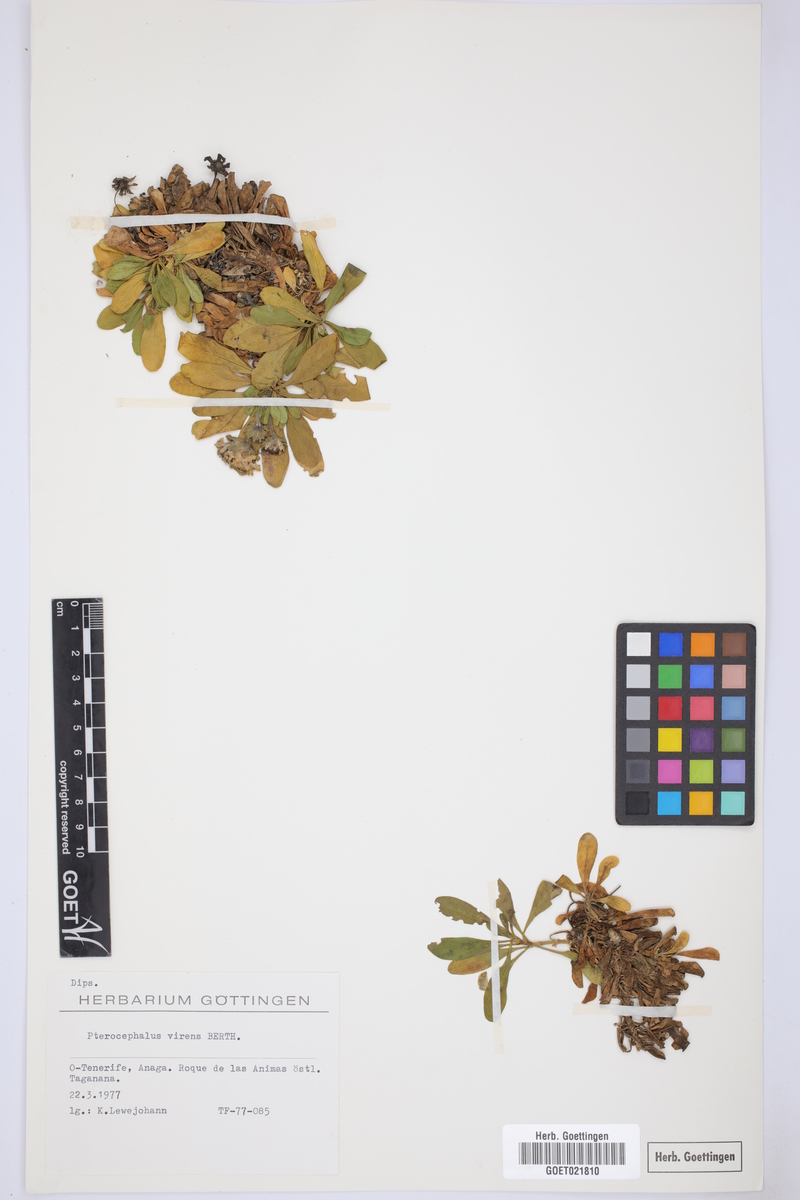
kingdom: Plantae
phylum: Tracheophyta
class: Magnoliopsida
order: Dipsacales
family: Caprifoliaceae
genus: Pterocephalus
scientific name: Pterocephalus virens
